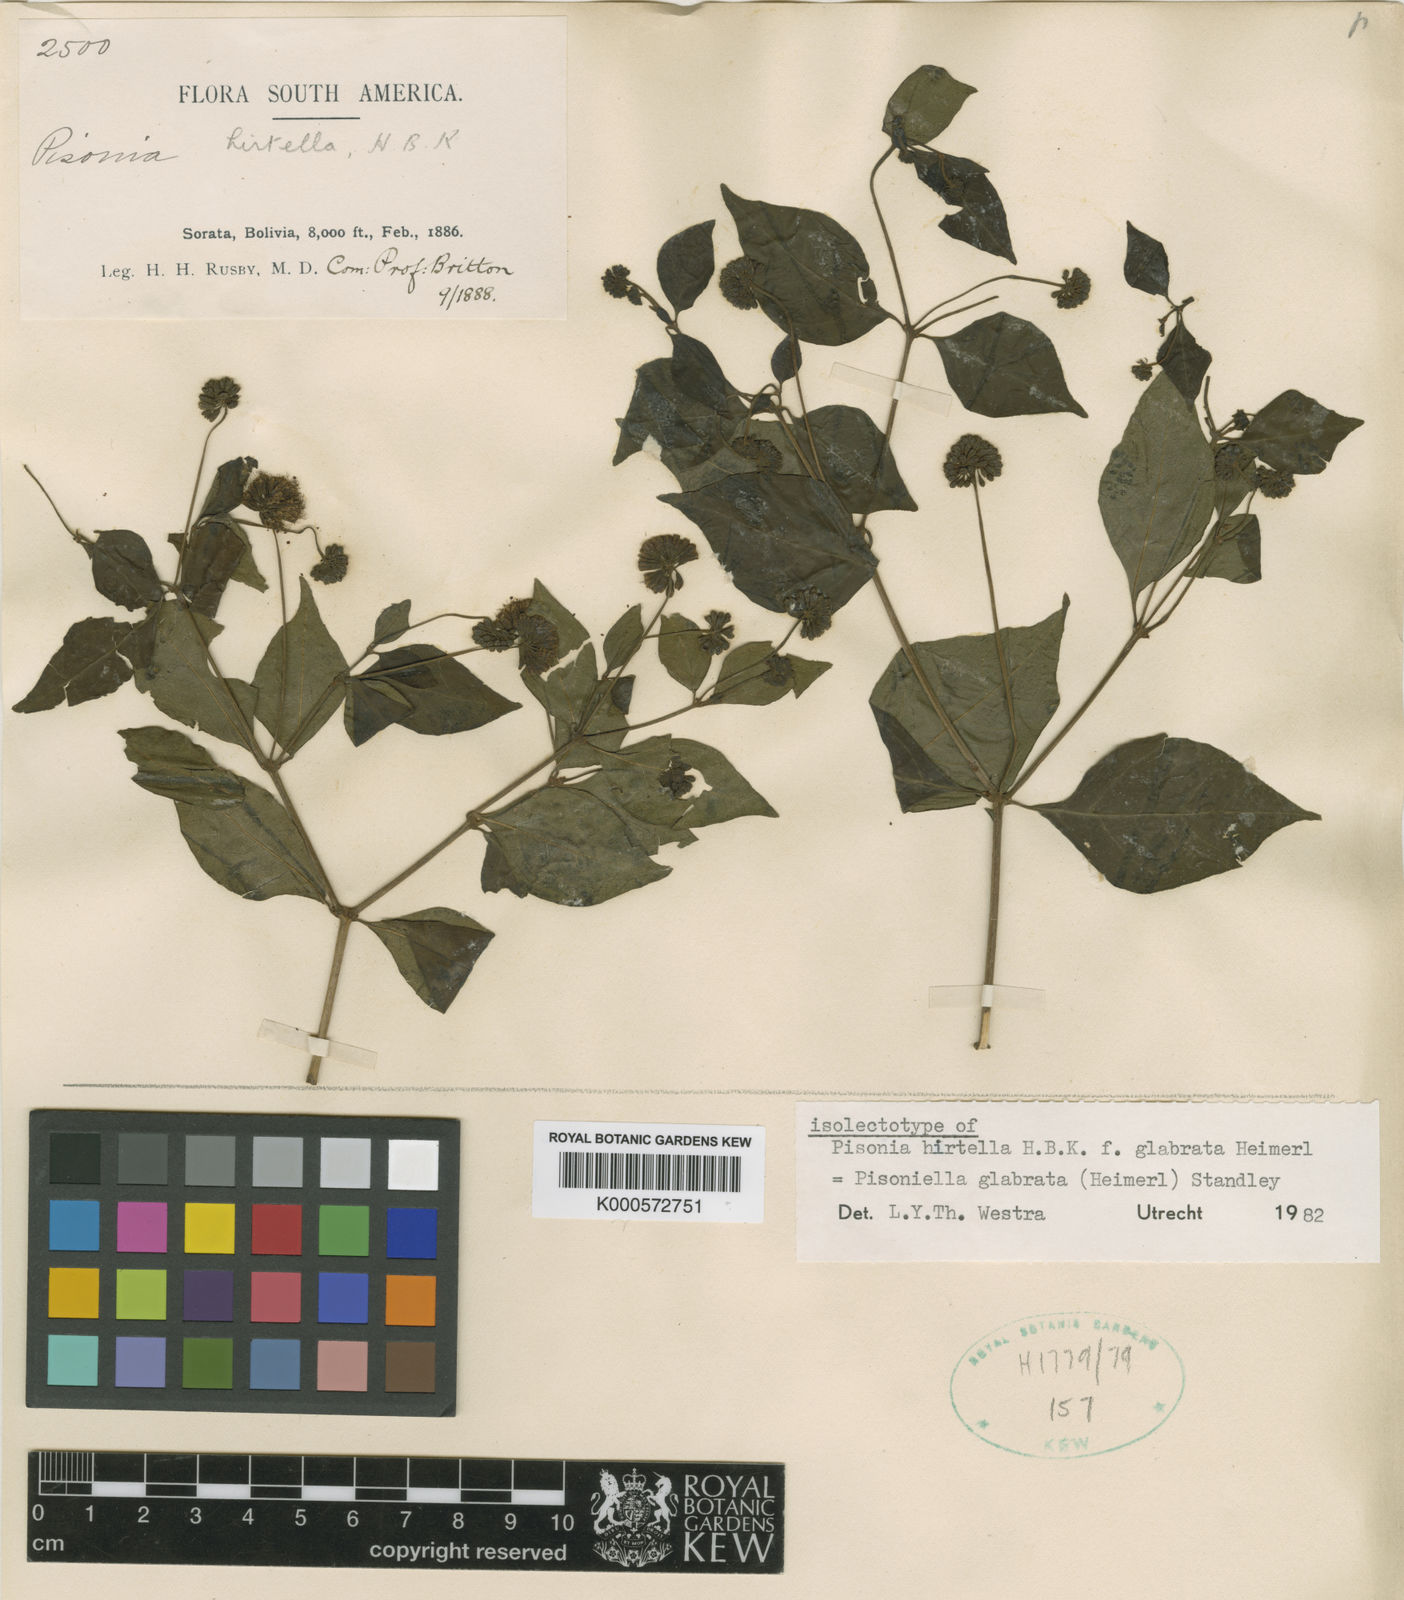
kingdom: Plantae
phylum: Tracheophyta
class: Magnoliopsida
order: Caryophyllales
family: Nyctaginaceae
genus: Pisoniella
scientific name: Pisoniella arborescens
